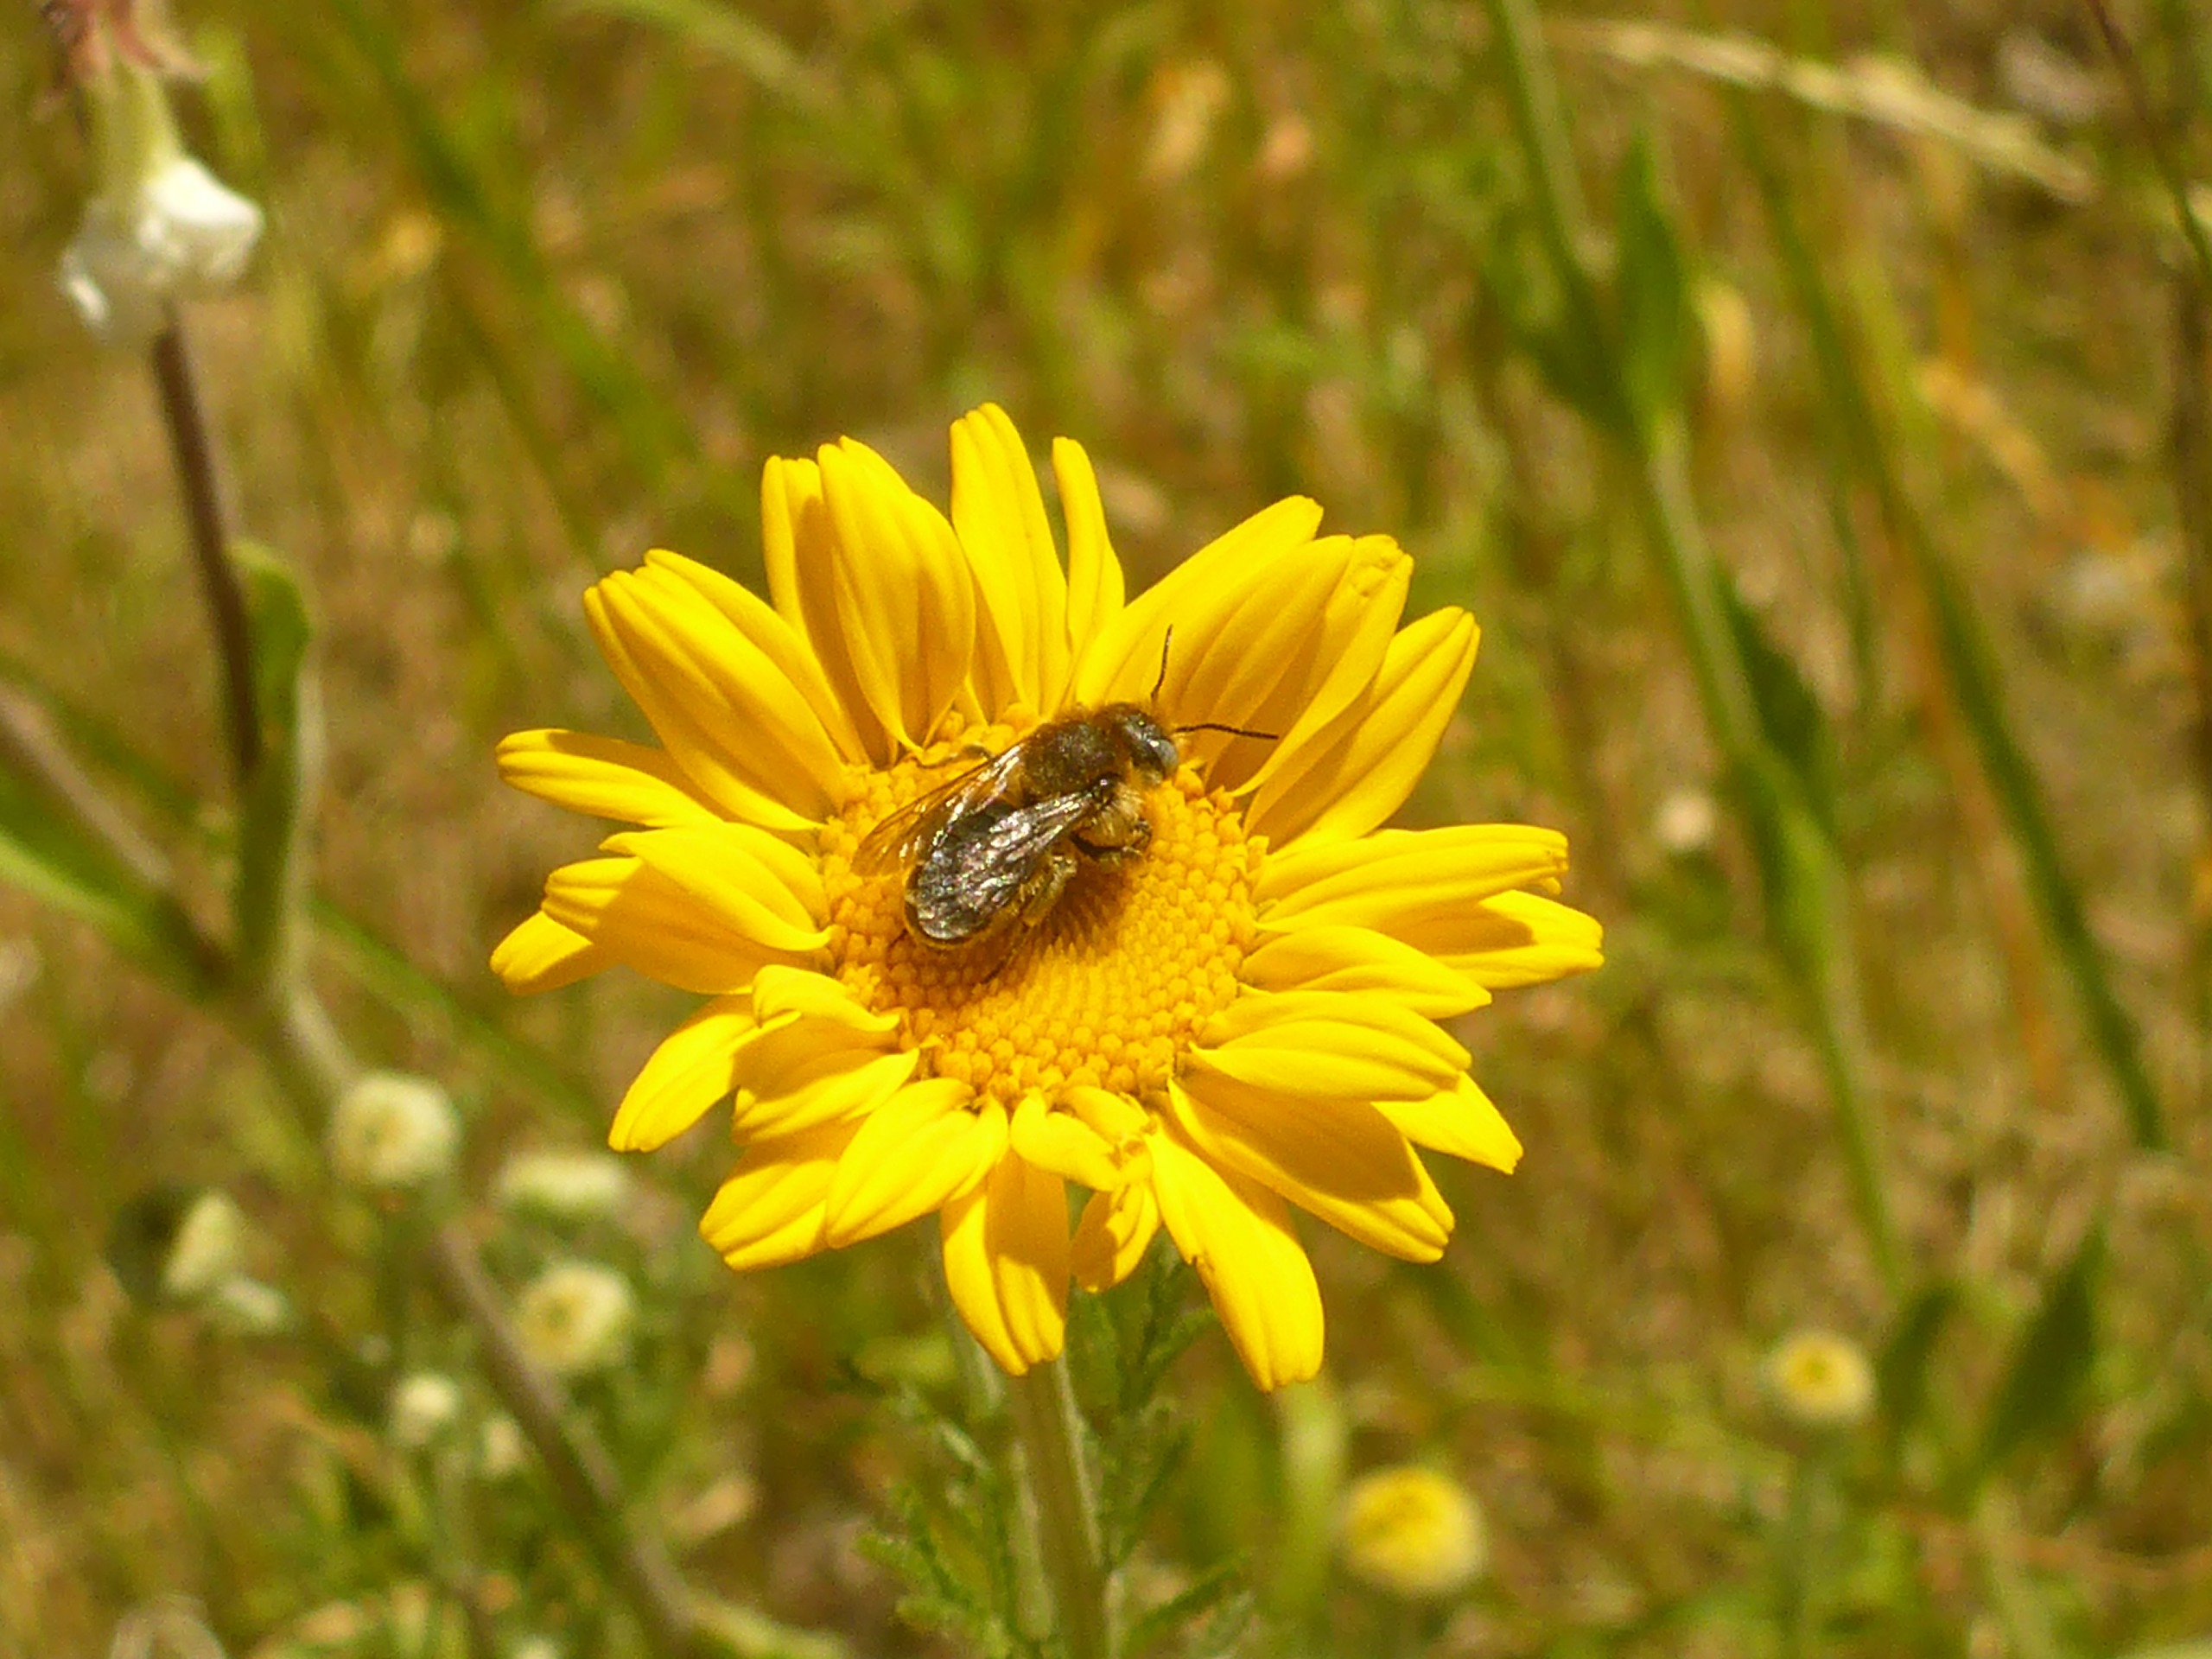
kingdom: Plantae
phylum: Tracheophyta
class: Magnoliopsida
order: Asterales
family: Asteraceae
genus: Cota
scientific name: Cota tinctoria
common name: Farve-gåseurt
